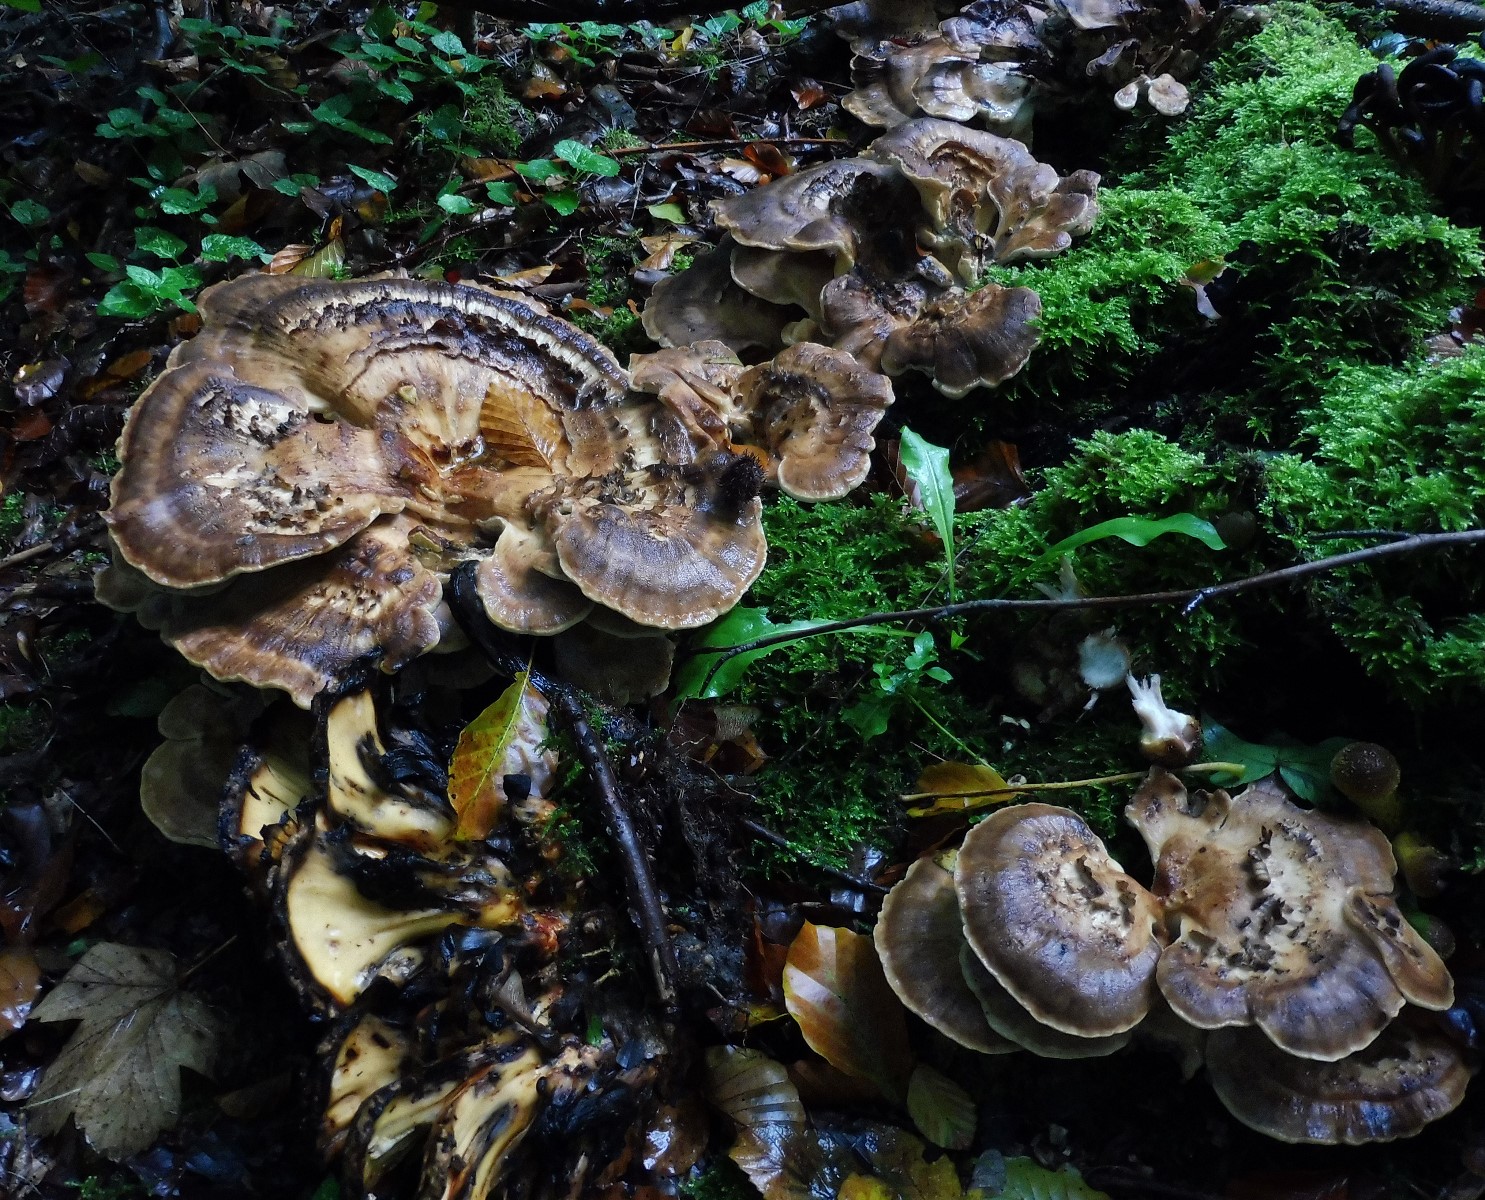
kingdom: Fungi
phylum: Basidiomycota
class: Agaricomycetes
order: Polyporales
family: Meripilaceae
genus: Meripilus
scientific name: Meripilus giganteus
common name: kæmpeporesvamp
